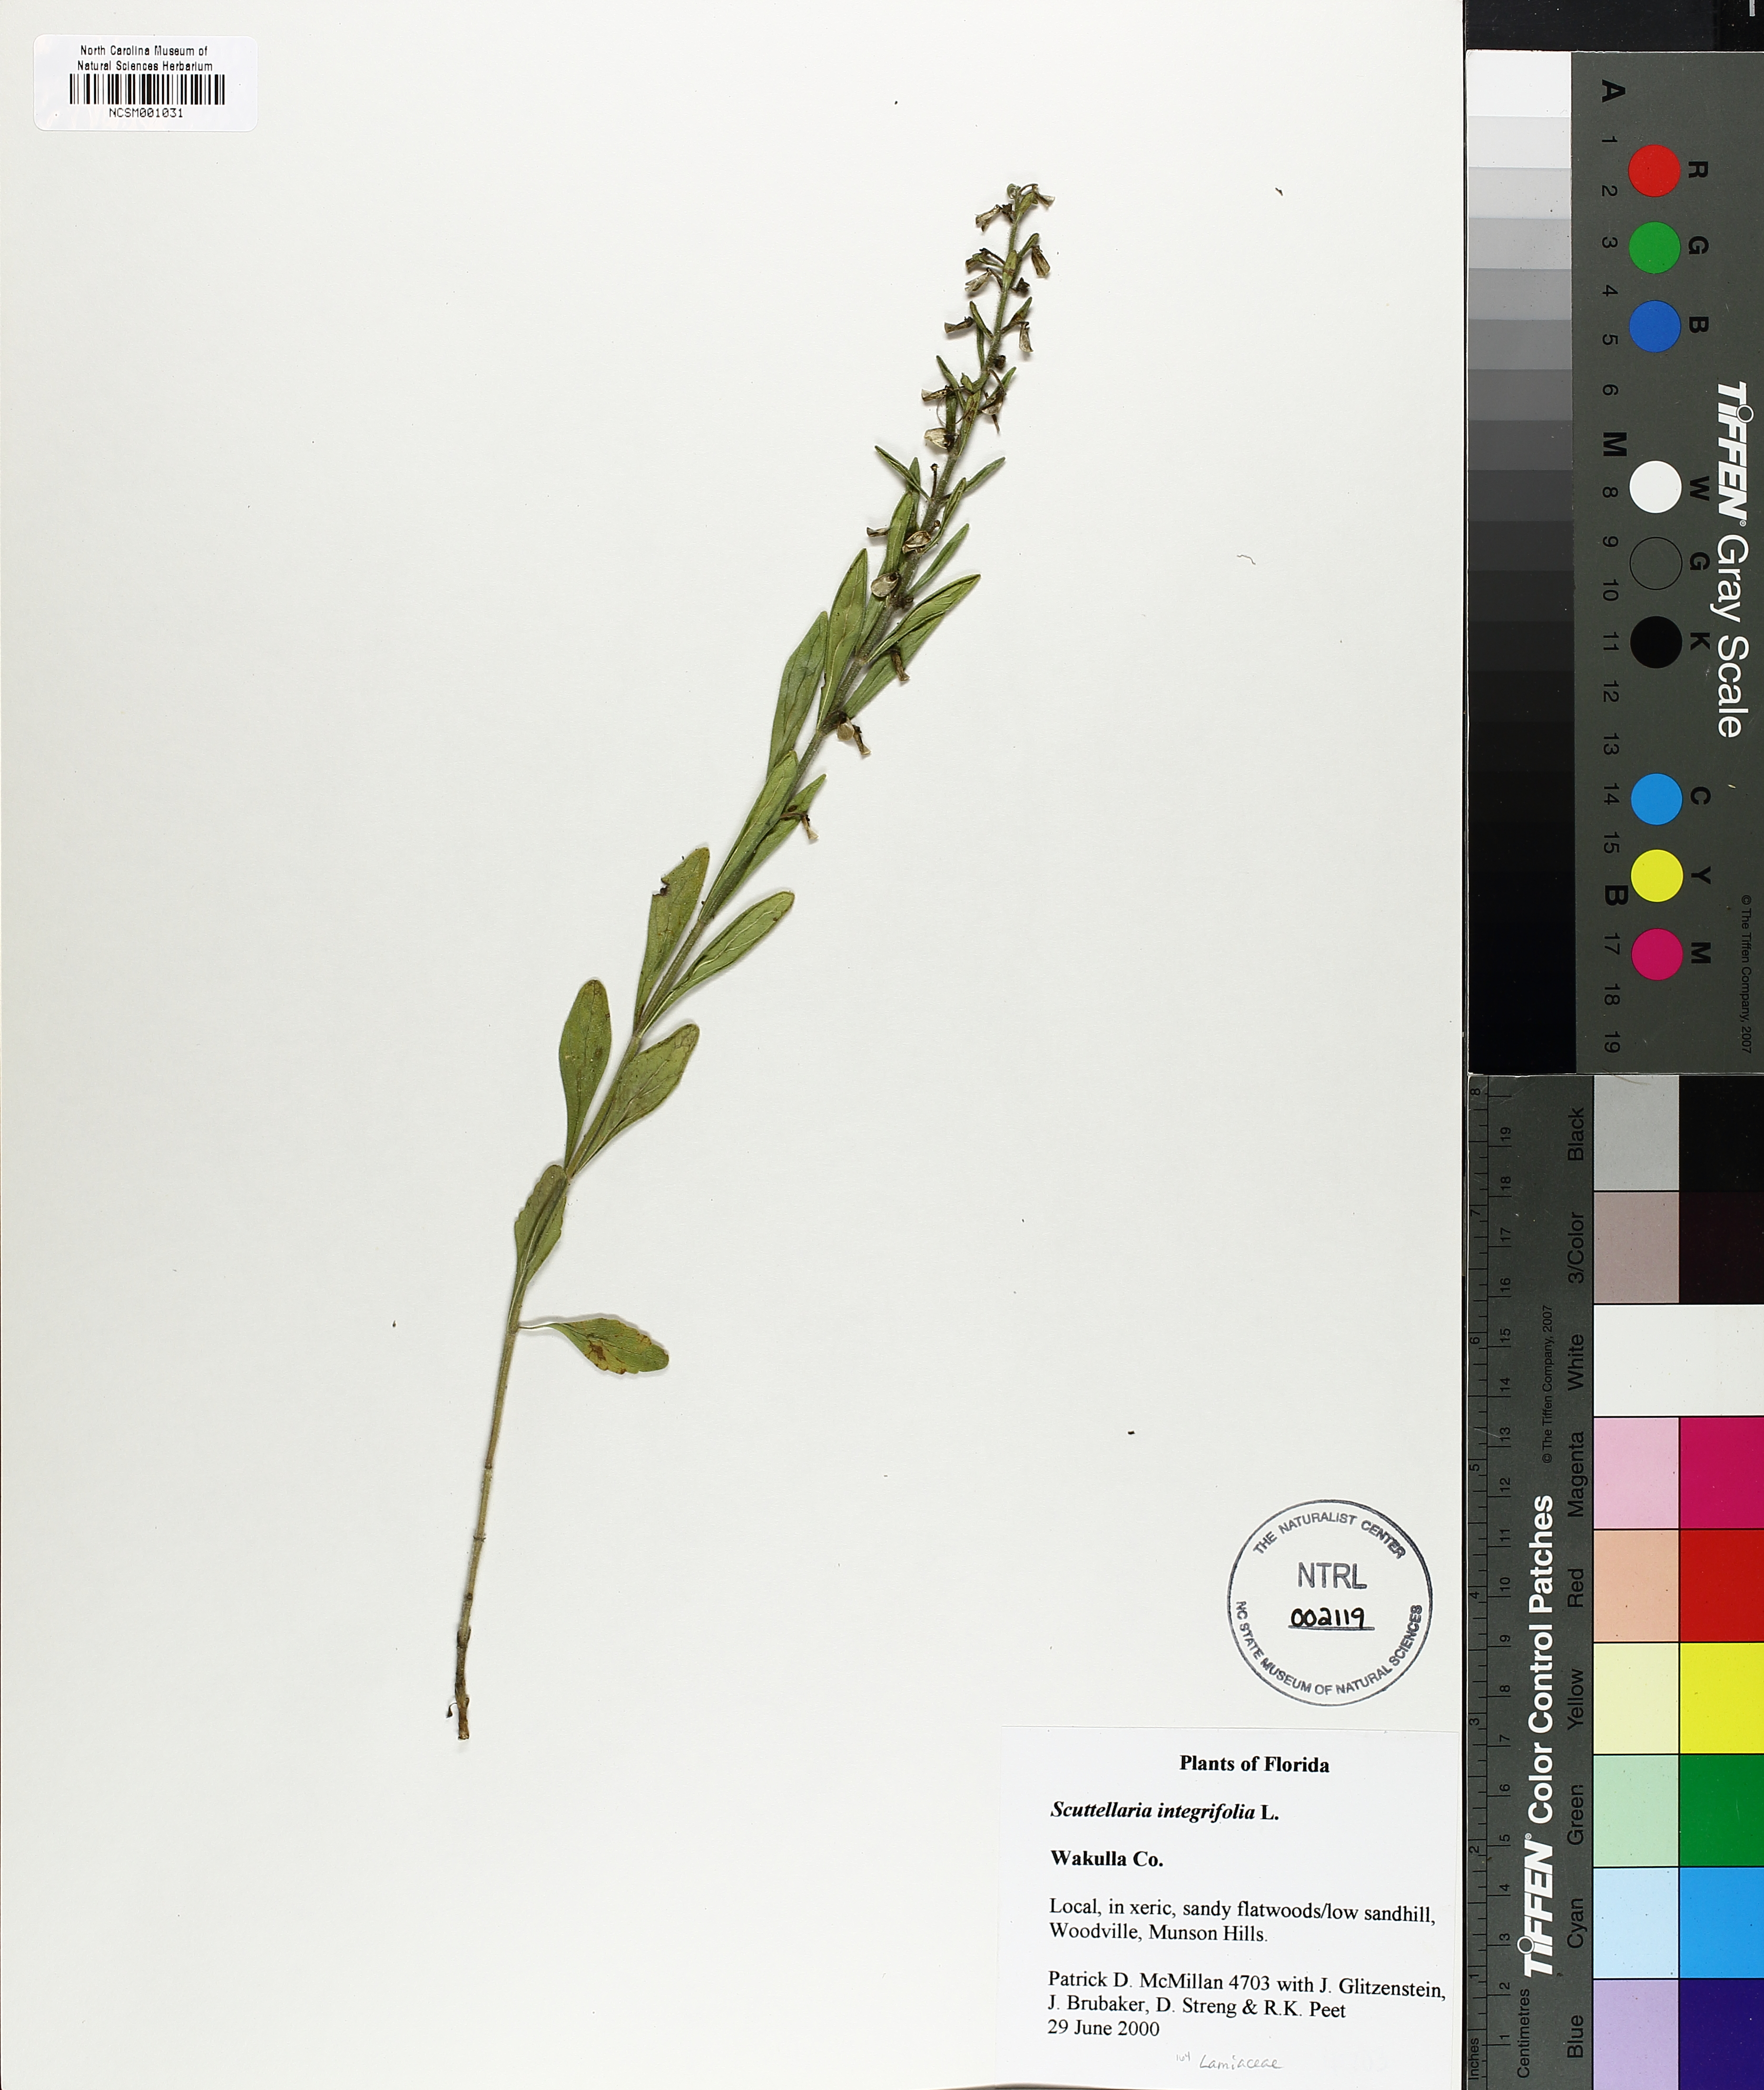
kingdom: Plantae
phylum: Tracheophyta
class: Magnoliopsida
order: Lamiales
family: Lamiaceae
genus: Scutellaria
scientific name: Scutellaria integrifolia
